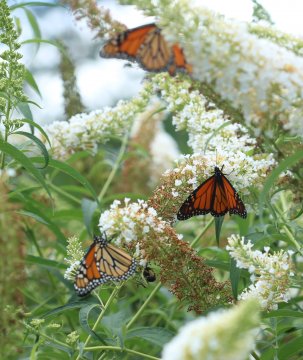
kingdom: Animalia
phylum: Arthropoda
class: Insecta
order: Lepidoptera
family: Nymphalidae
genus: Danaus
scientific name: Danaus plexippus
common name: Monarch
